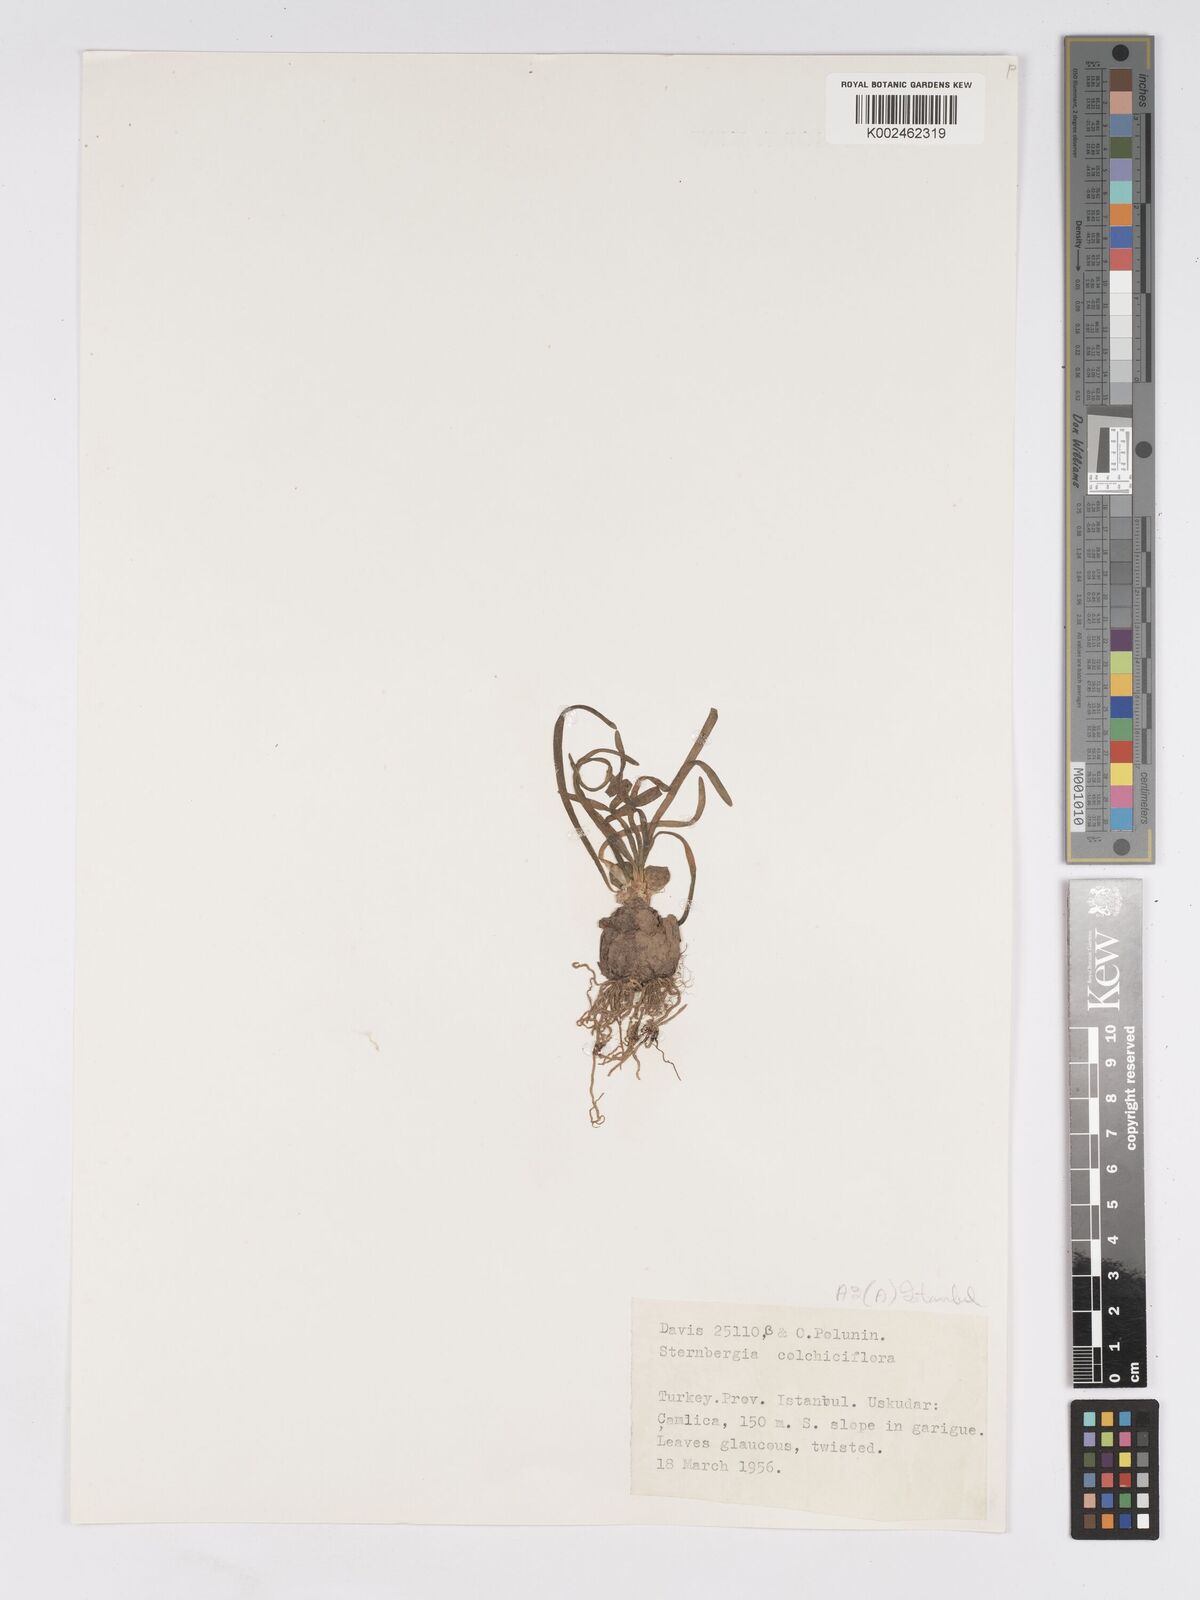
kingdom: Plantae
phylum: Tracheophyta
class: Liliopsida
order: Asparagales
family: Amaryllidaceae
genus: Sternbergia
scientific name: Sternbergia colchiciflora
